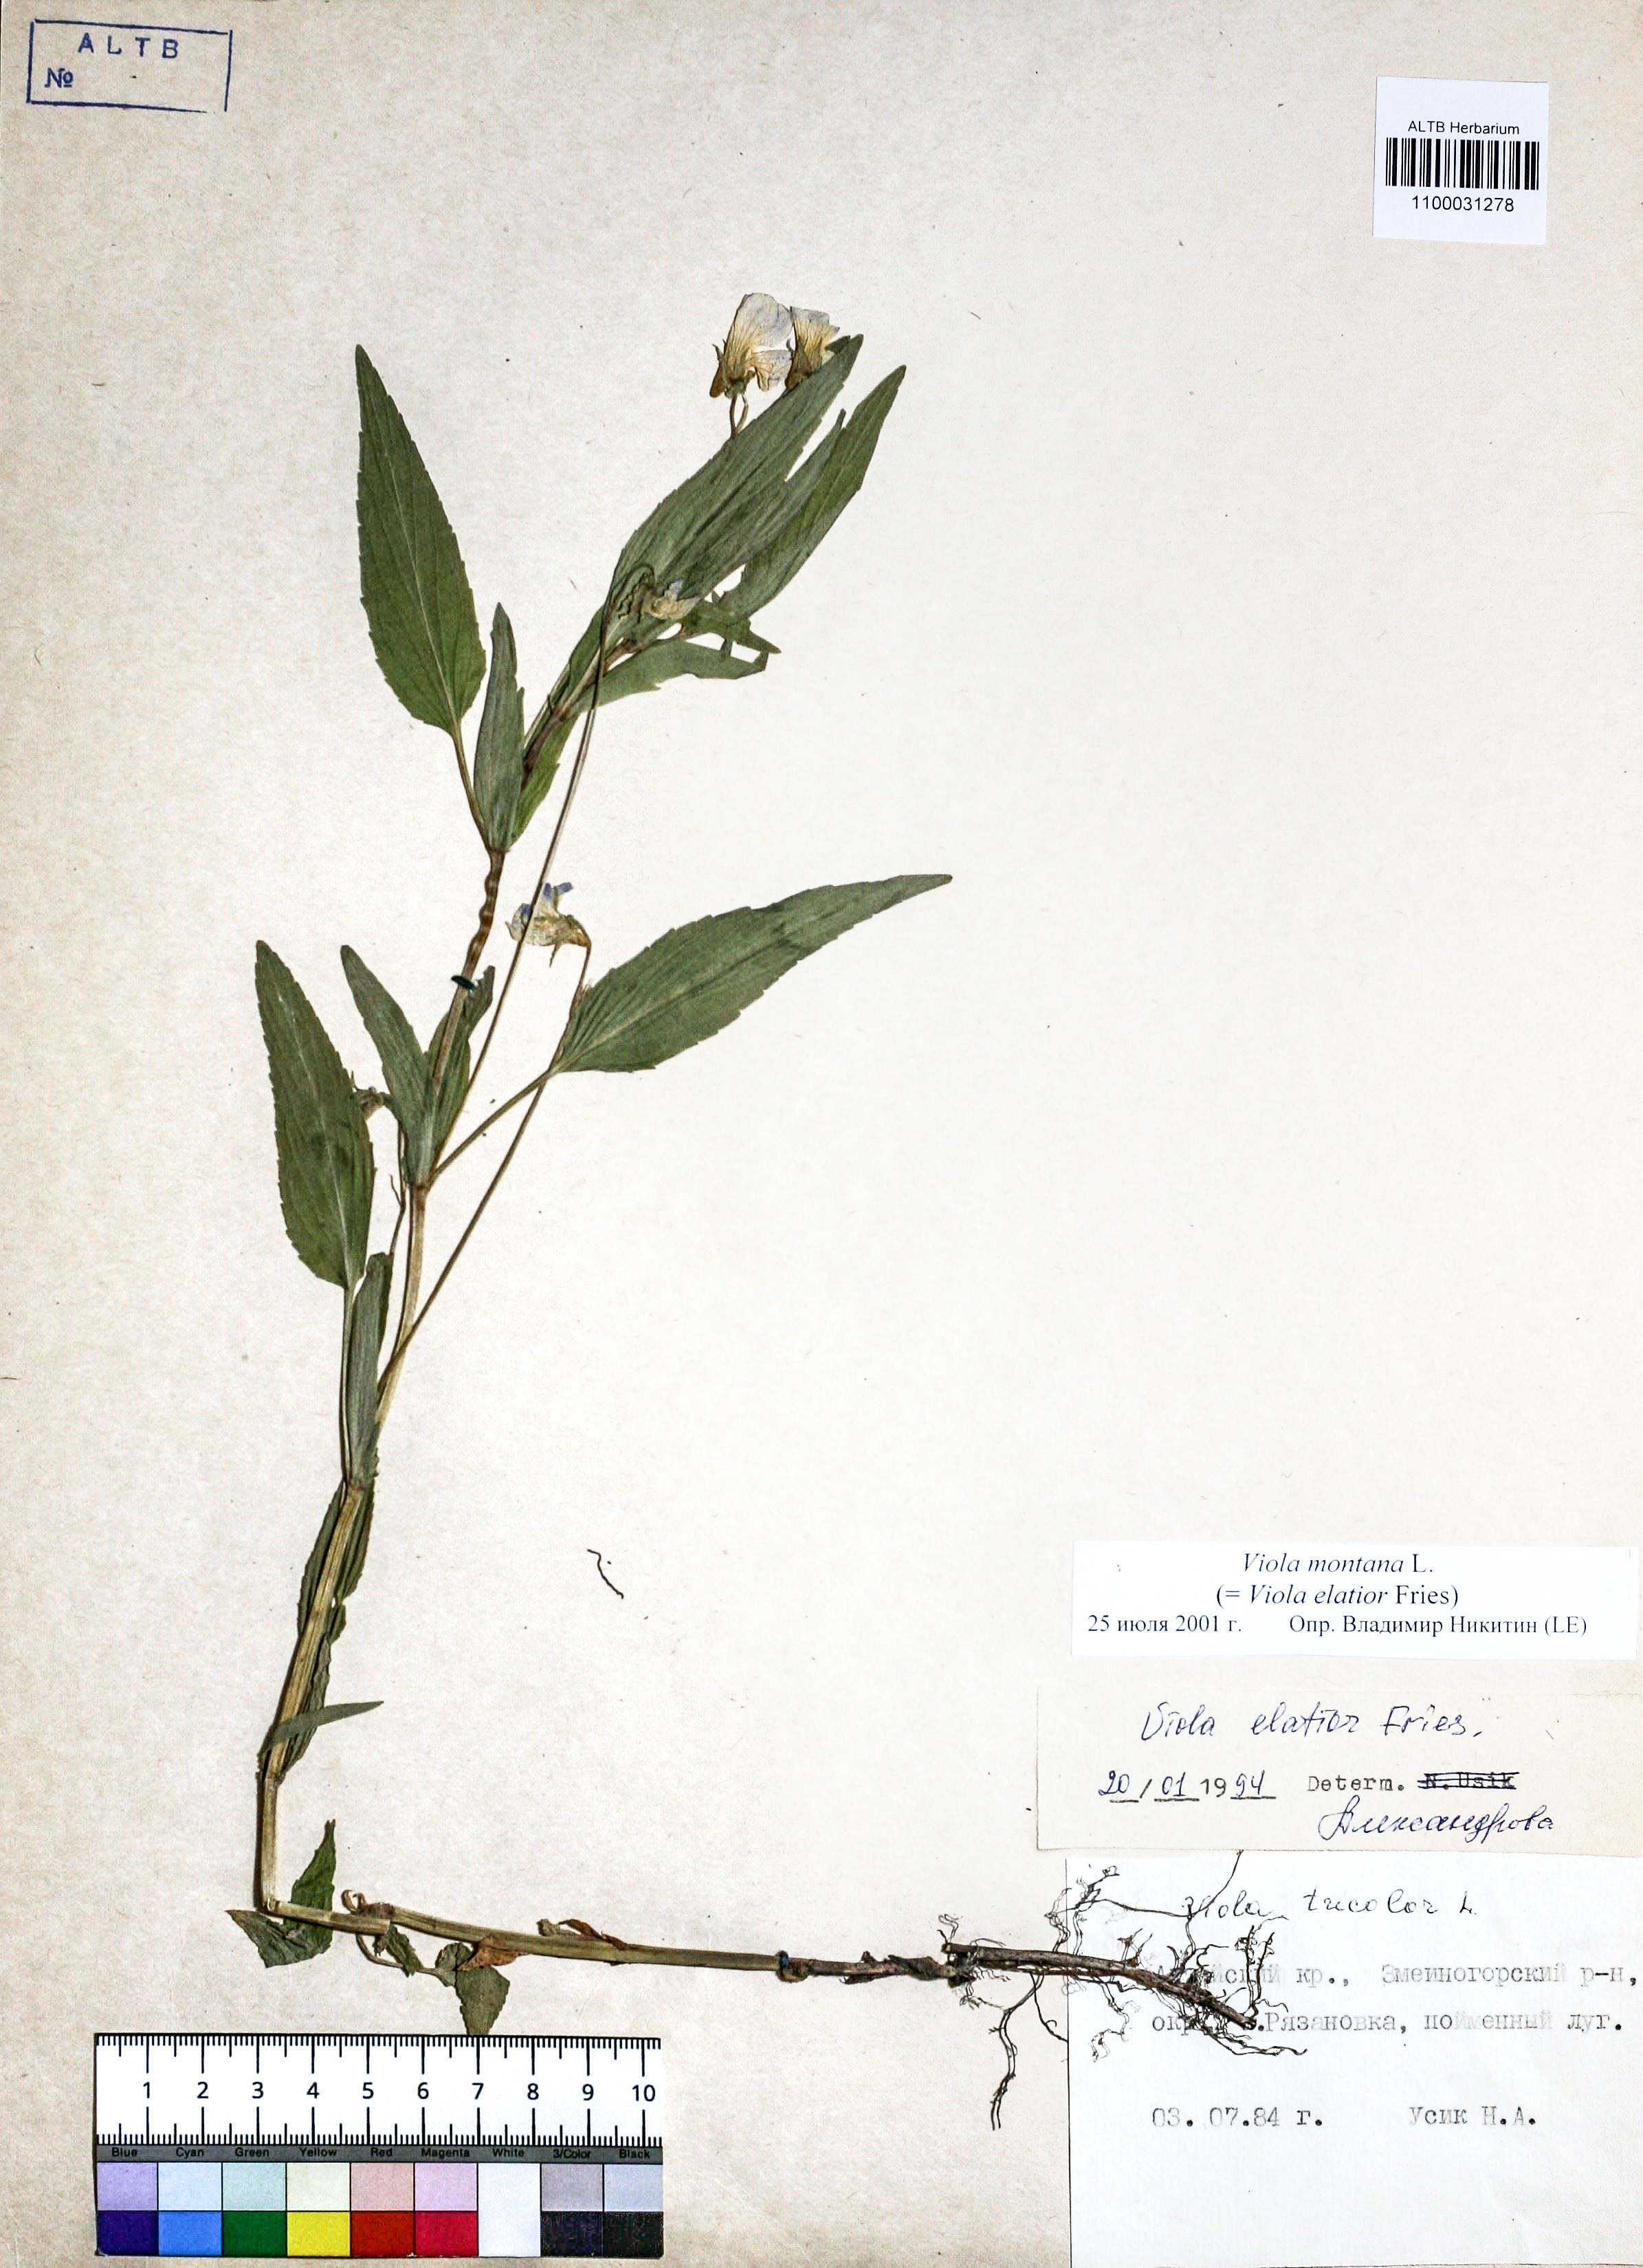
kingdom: Plantae
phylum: Tracheophyta
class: Magnoliopsida
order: Malpighiales
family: Violaceae
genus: Viola
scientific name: Viola ruppii
